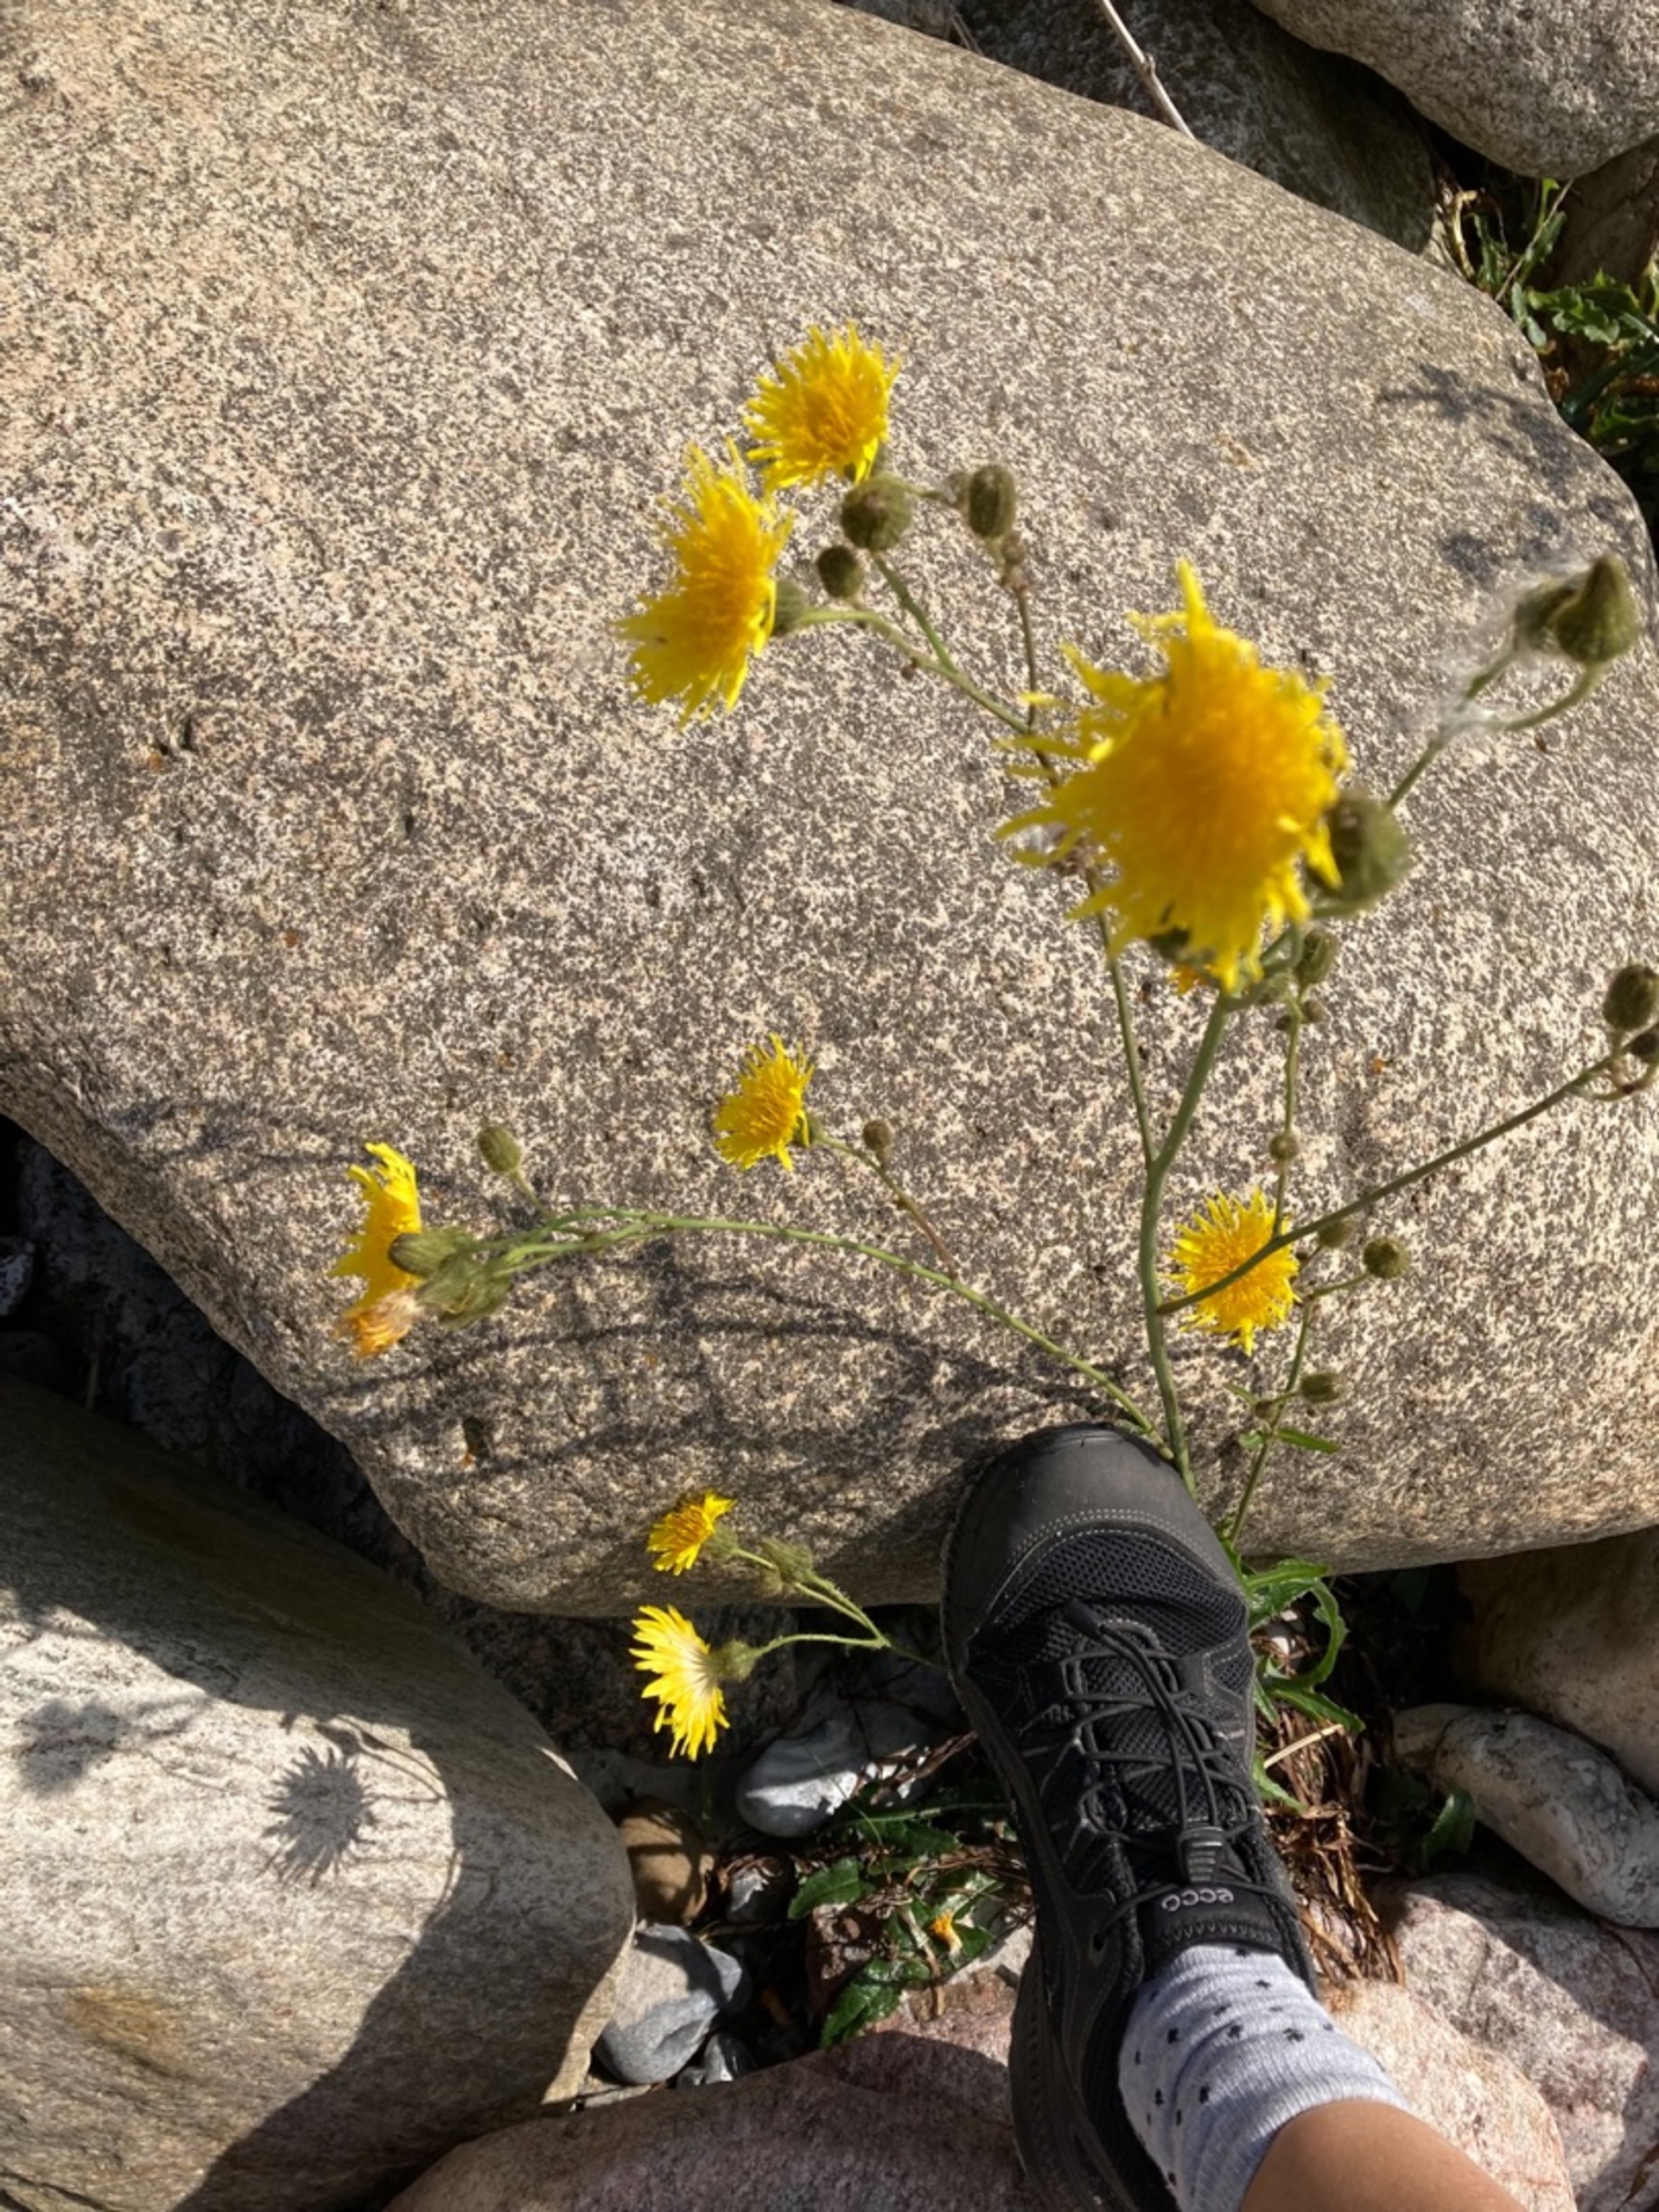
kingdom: Plantae
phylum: Tracheophyta
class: Magnoliopsida
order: Asterales
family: Asteraceae
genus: Sonchus
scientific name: Sonchus arvensis
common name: Ager-svinemælk
